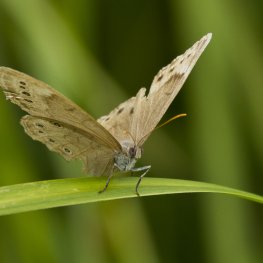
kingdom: Animalia
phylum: Arthropoda
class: Insecta
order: Lepidoptera
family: Nymphalidae
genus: Lethe
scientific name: Lethe eurydice
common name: Eyed Brown
